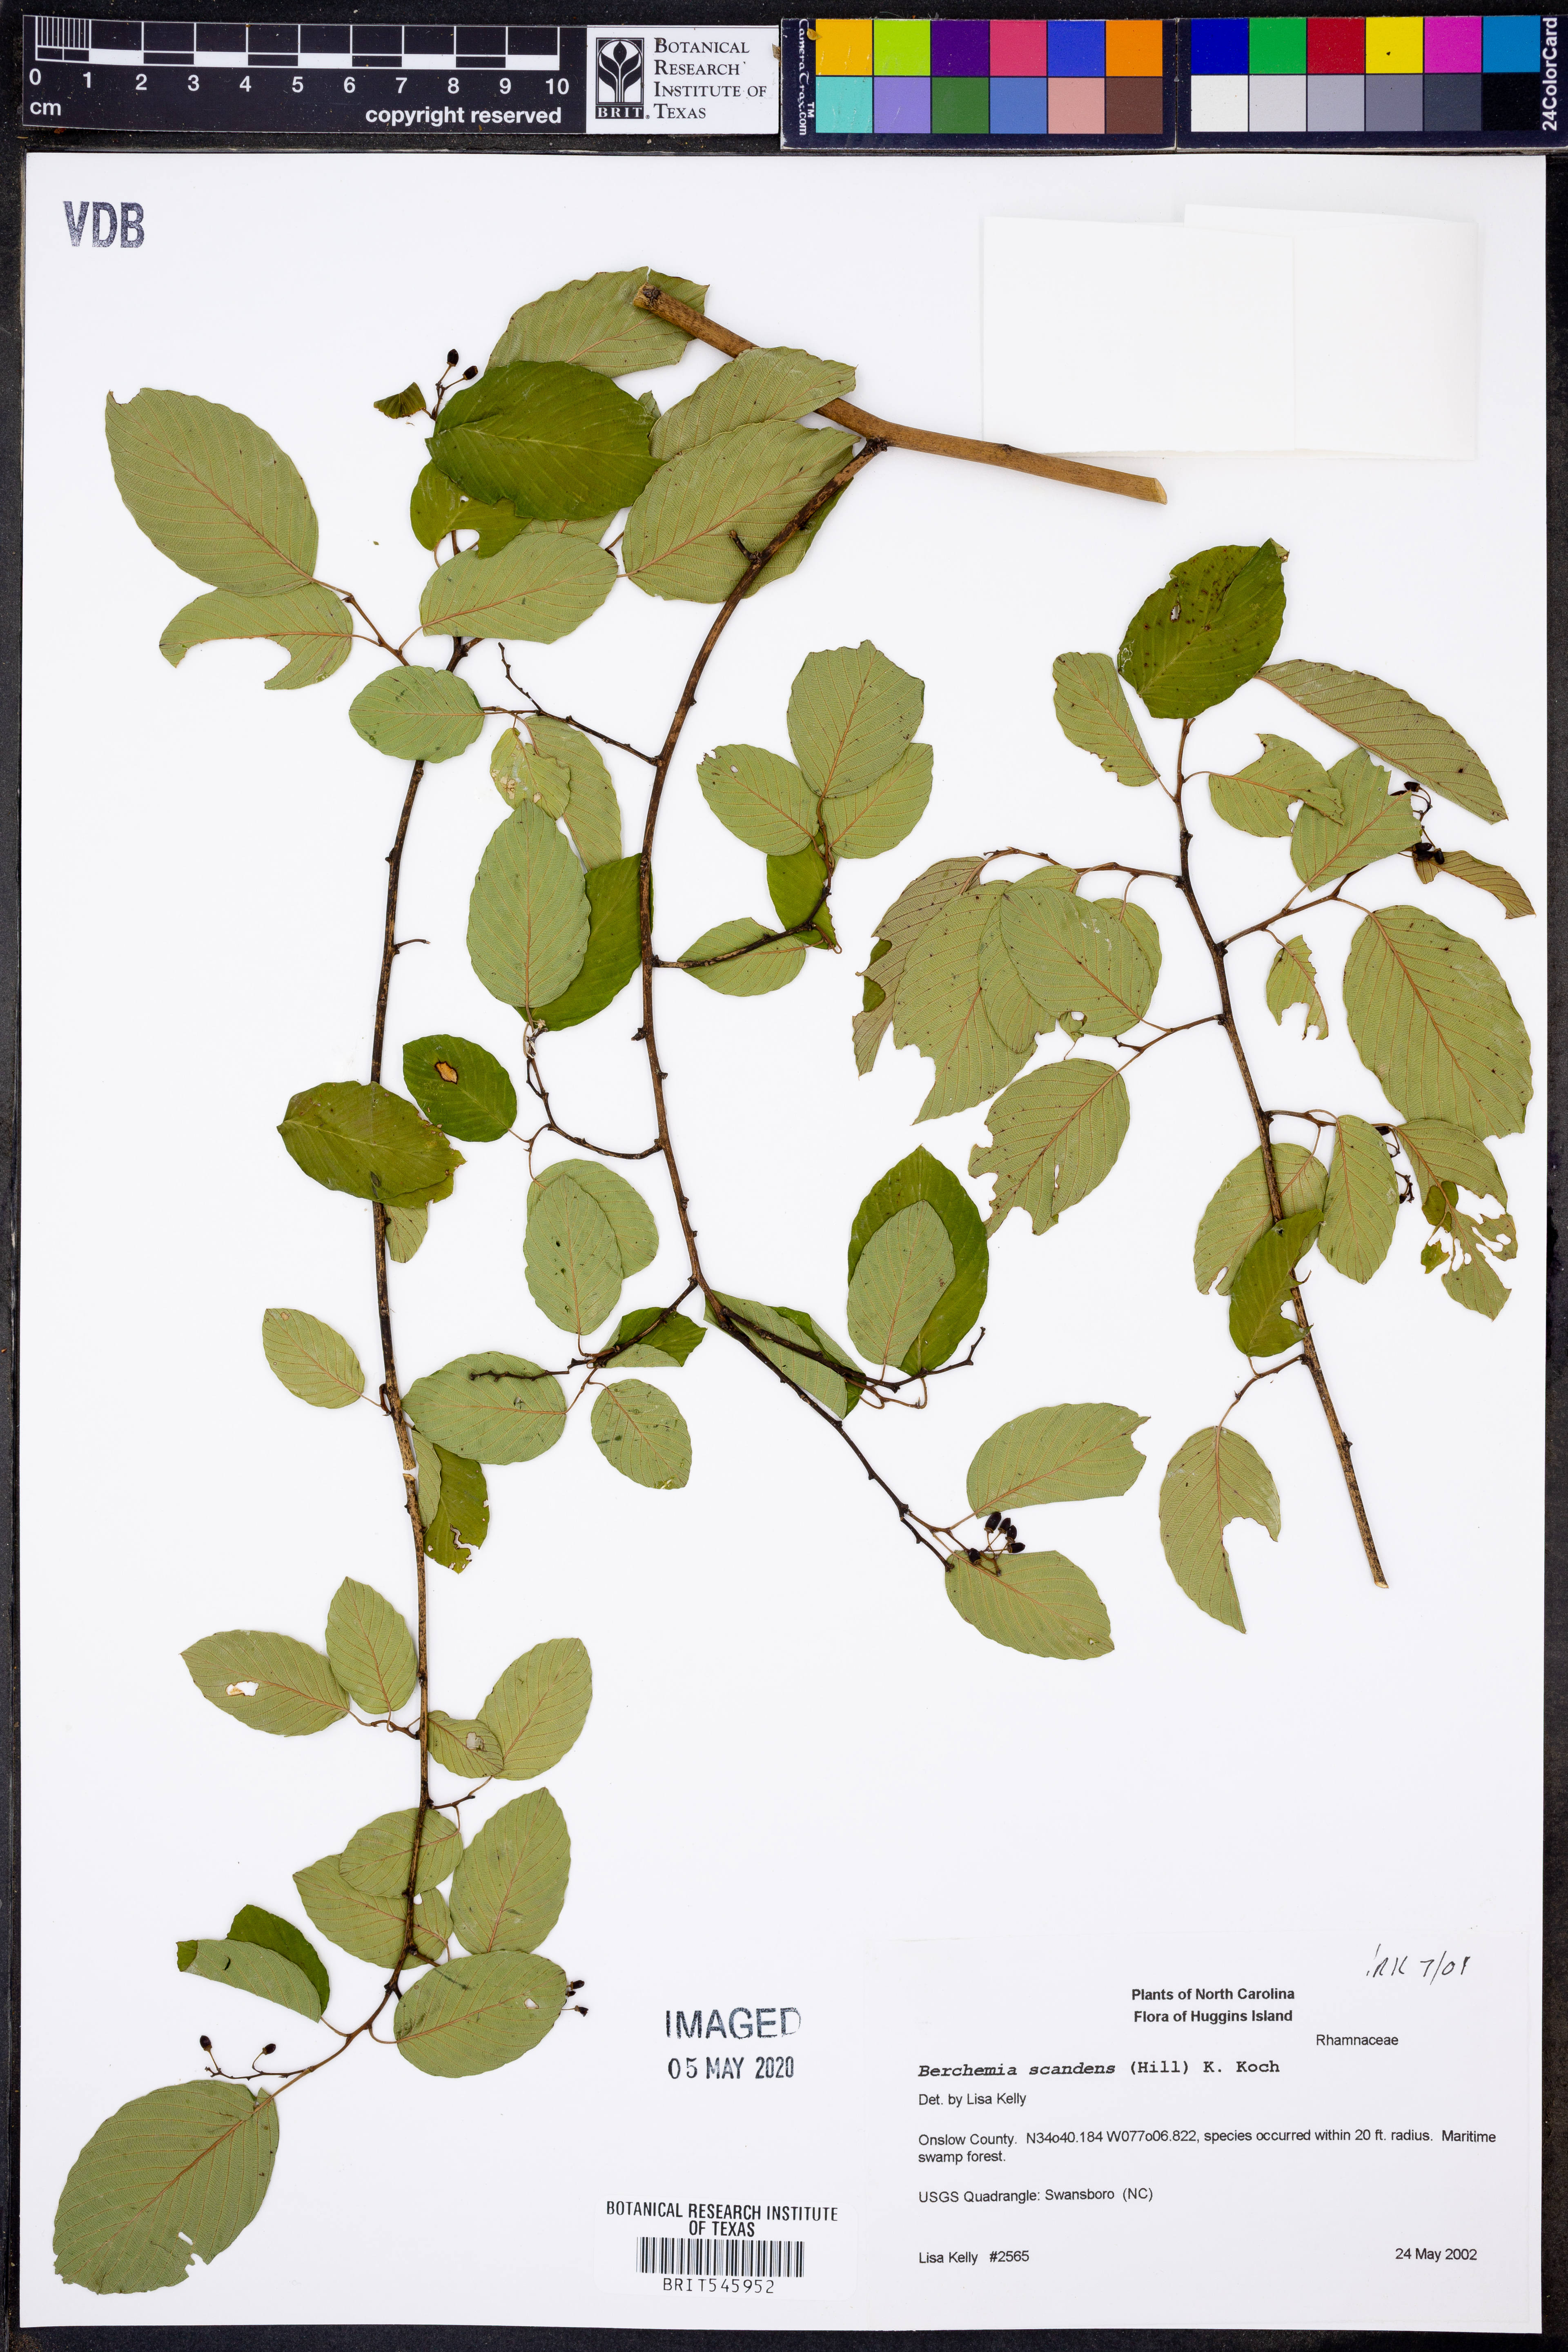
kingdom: Plantae
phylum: Tracheophyta
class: Magnoliopsida
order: Rosales
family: Rhamnaceae
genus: Berchemia
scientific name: Berchemia scandens
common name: Supplejack
